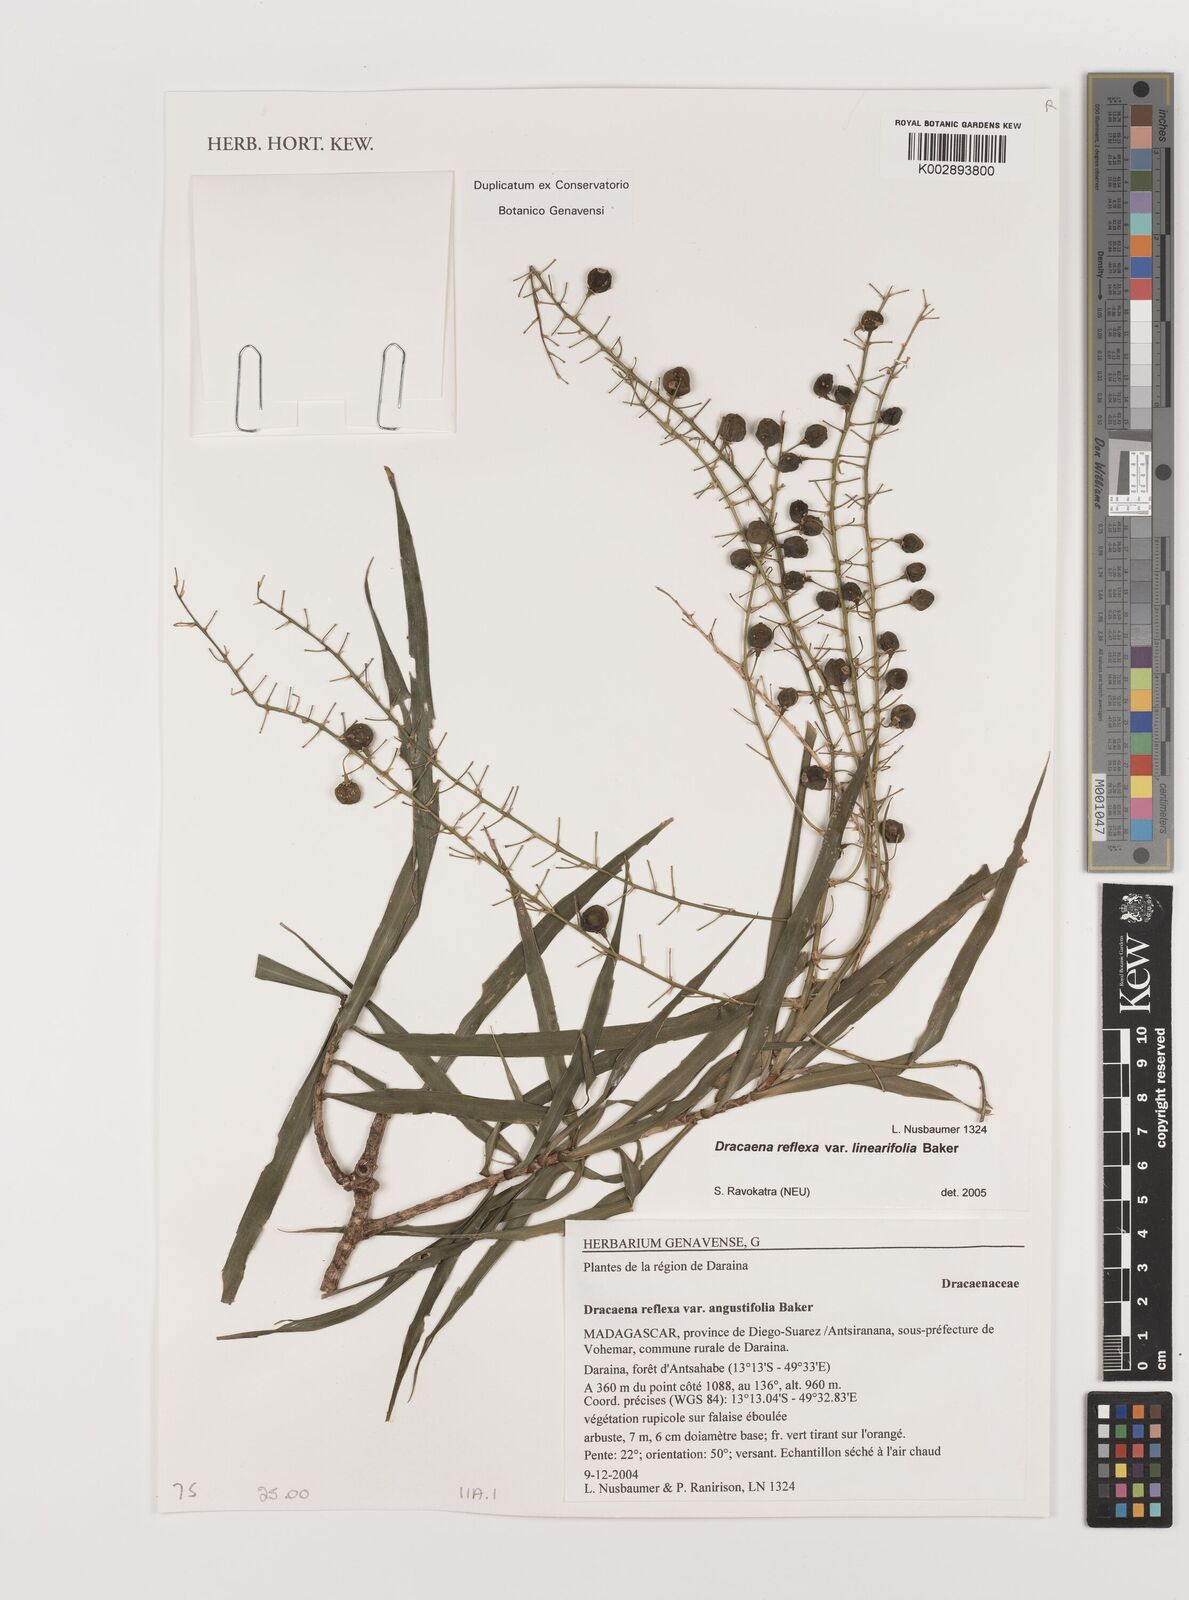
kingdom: Plantae
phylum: Tracheophyta
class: Liliopsida
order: Asparagales
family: Asparagaceae
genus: Dracaena
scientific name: Dracaena
